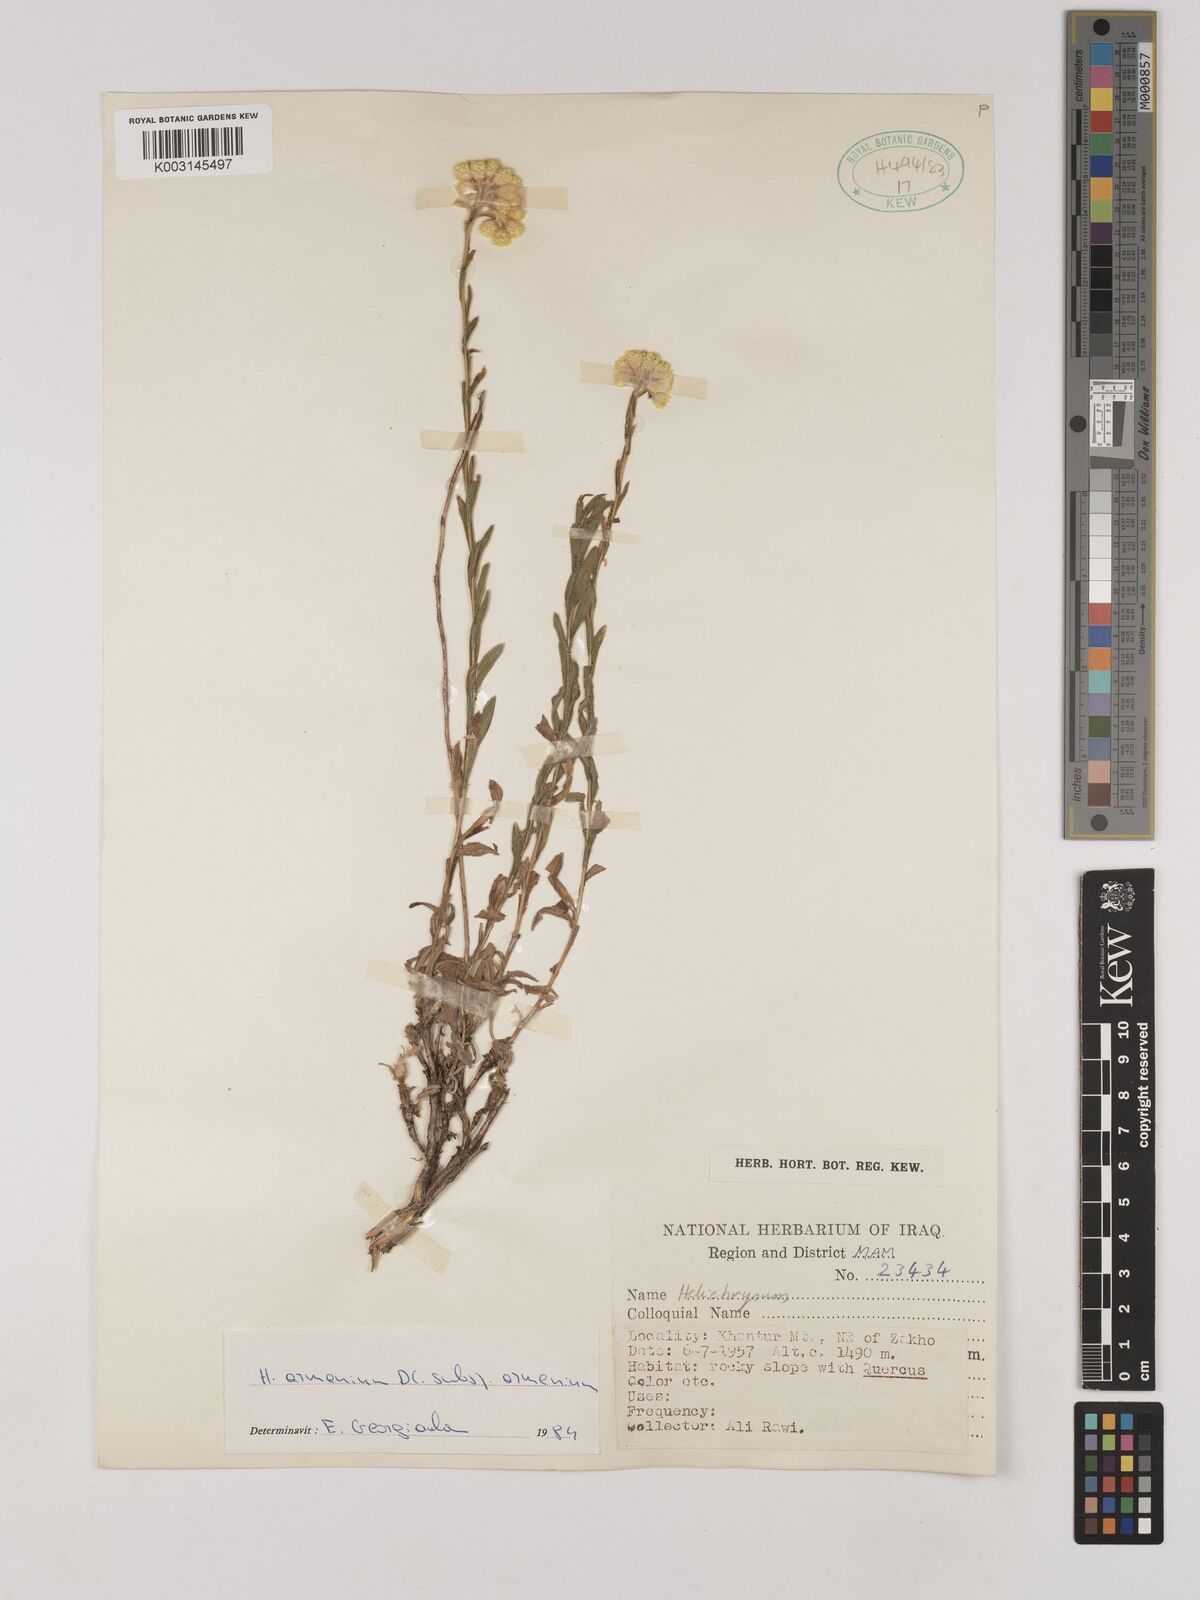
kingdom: Plantae
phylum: Tracheophyta
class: Magnoliopsida
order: Asterales
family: Asteraceae
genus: Helichrysum
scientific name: Helichrysum armenium
